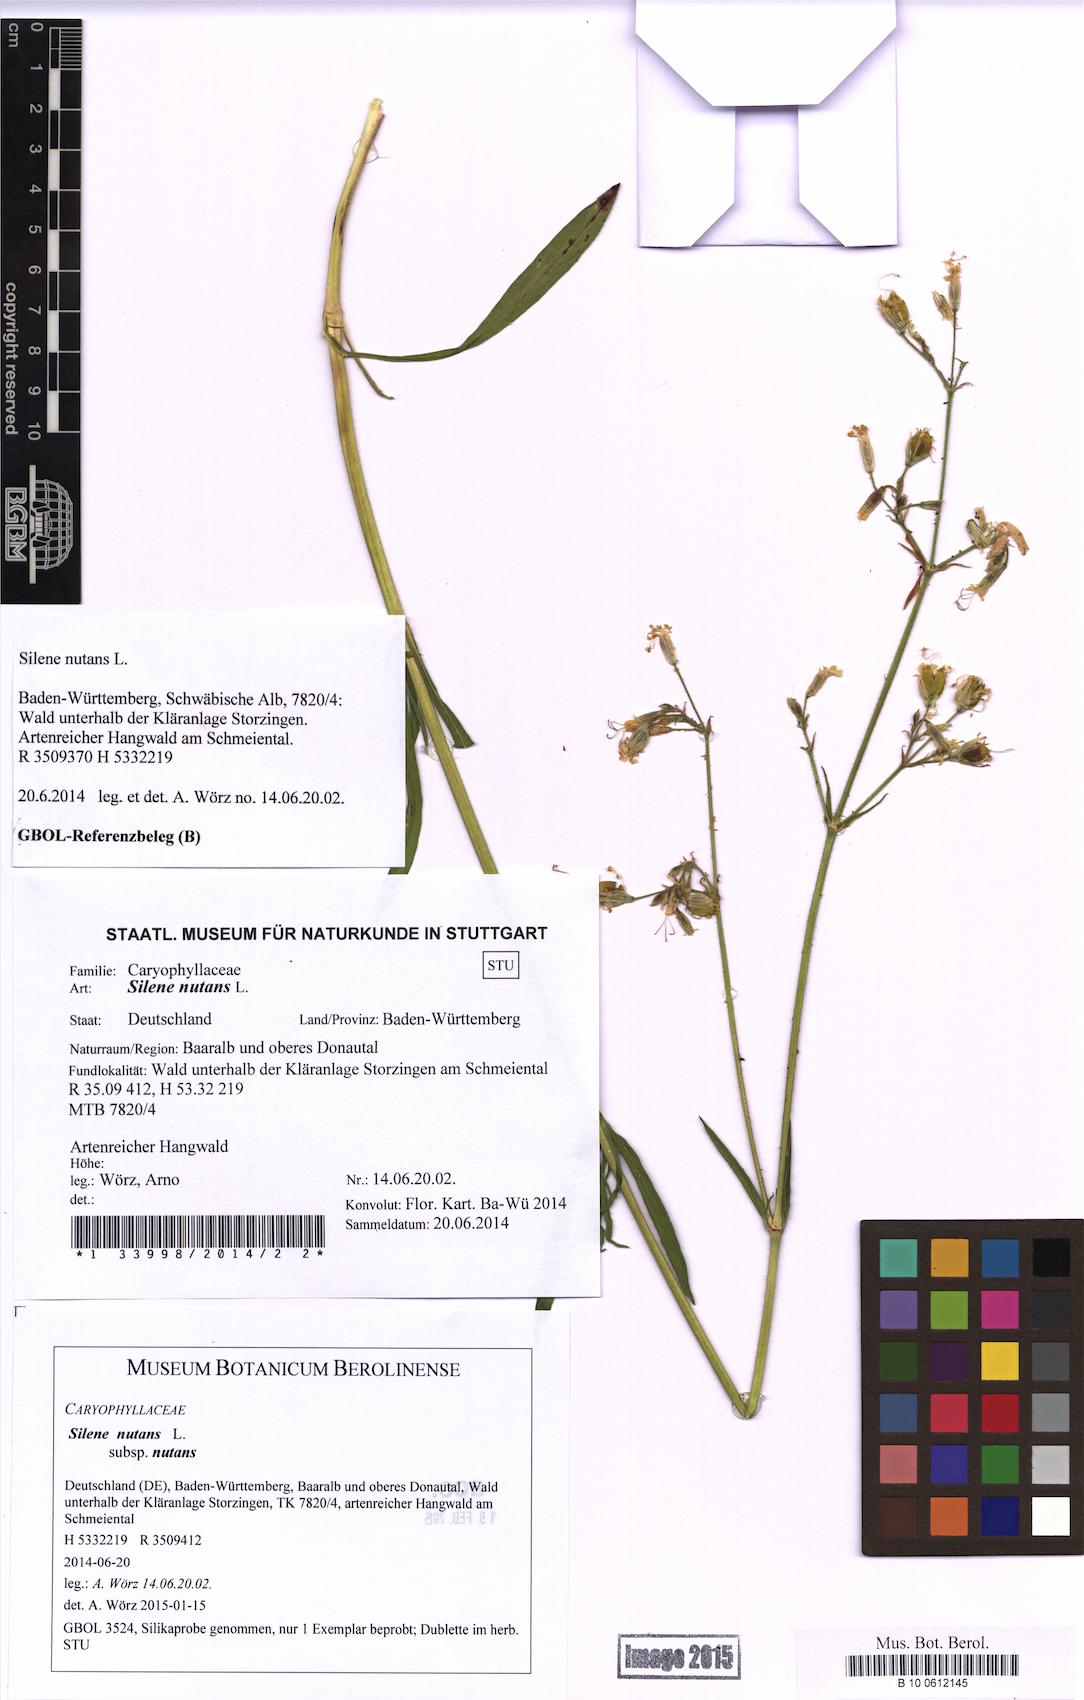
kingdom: Plantae
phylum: Tracheophyta
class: Magnoliopsida
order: Caryophyllales
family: Caryophyllaceae
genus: Silene
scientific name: Silene nutans
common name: Nottingham catchfly
